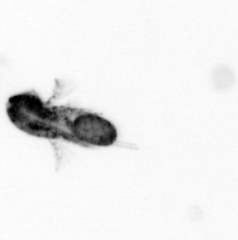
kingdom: Animalia
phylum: Arthropoda
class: Copepoda
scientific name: Copepoda
